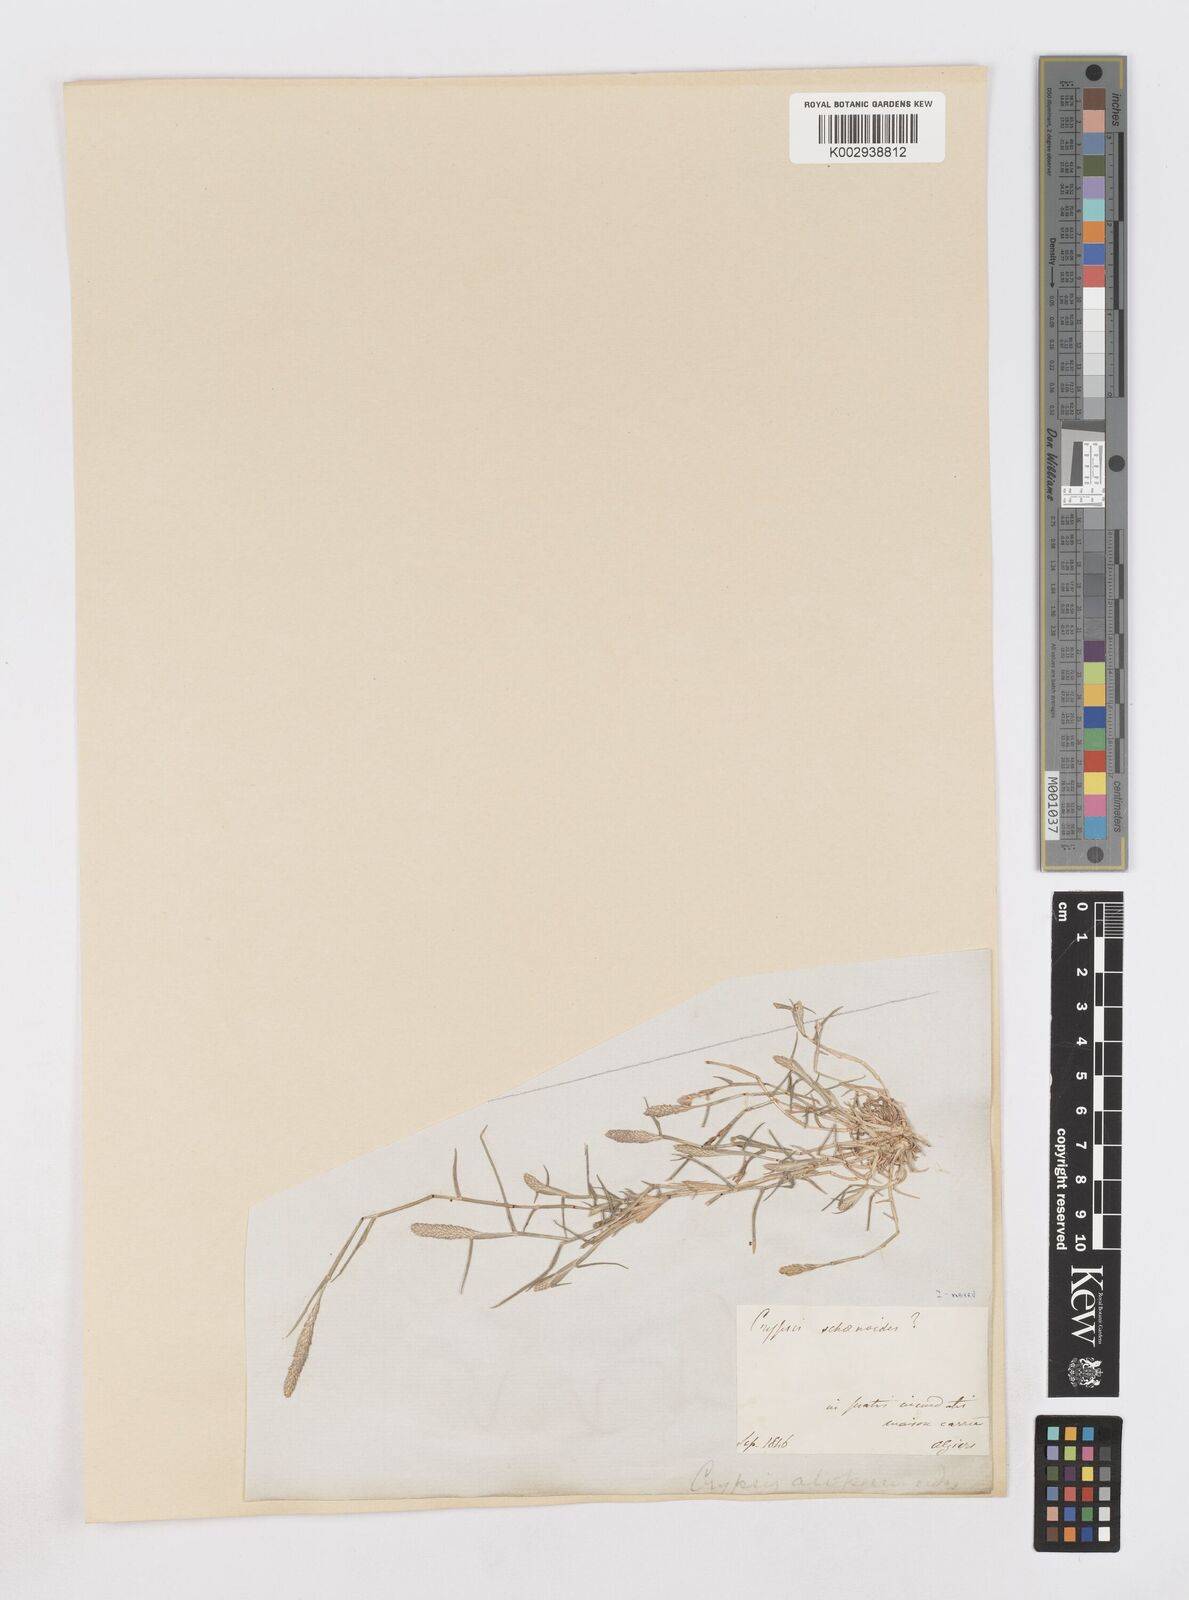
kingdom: Plantae
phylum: Tracheophyta
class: Liliopsida
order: Poales
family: Poaceae
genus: Sporobolus
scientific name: Sporobolus alopecuroides
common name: Foxtail pricklegrass
